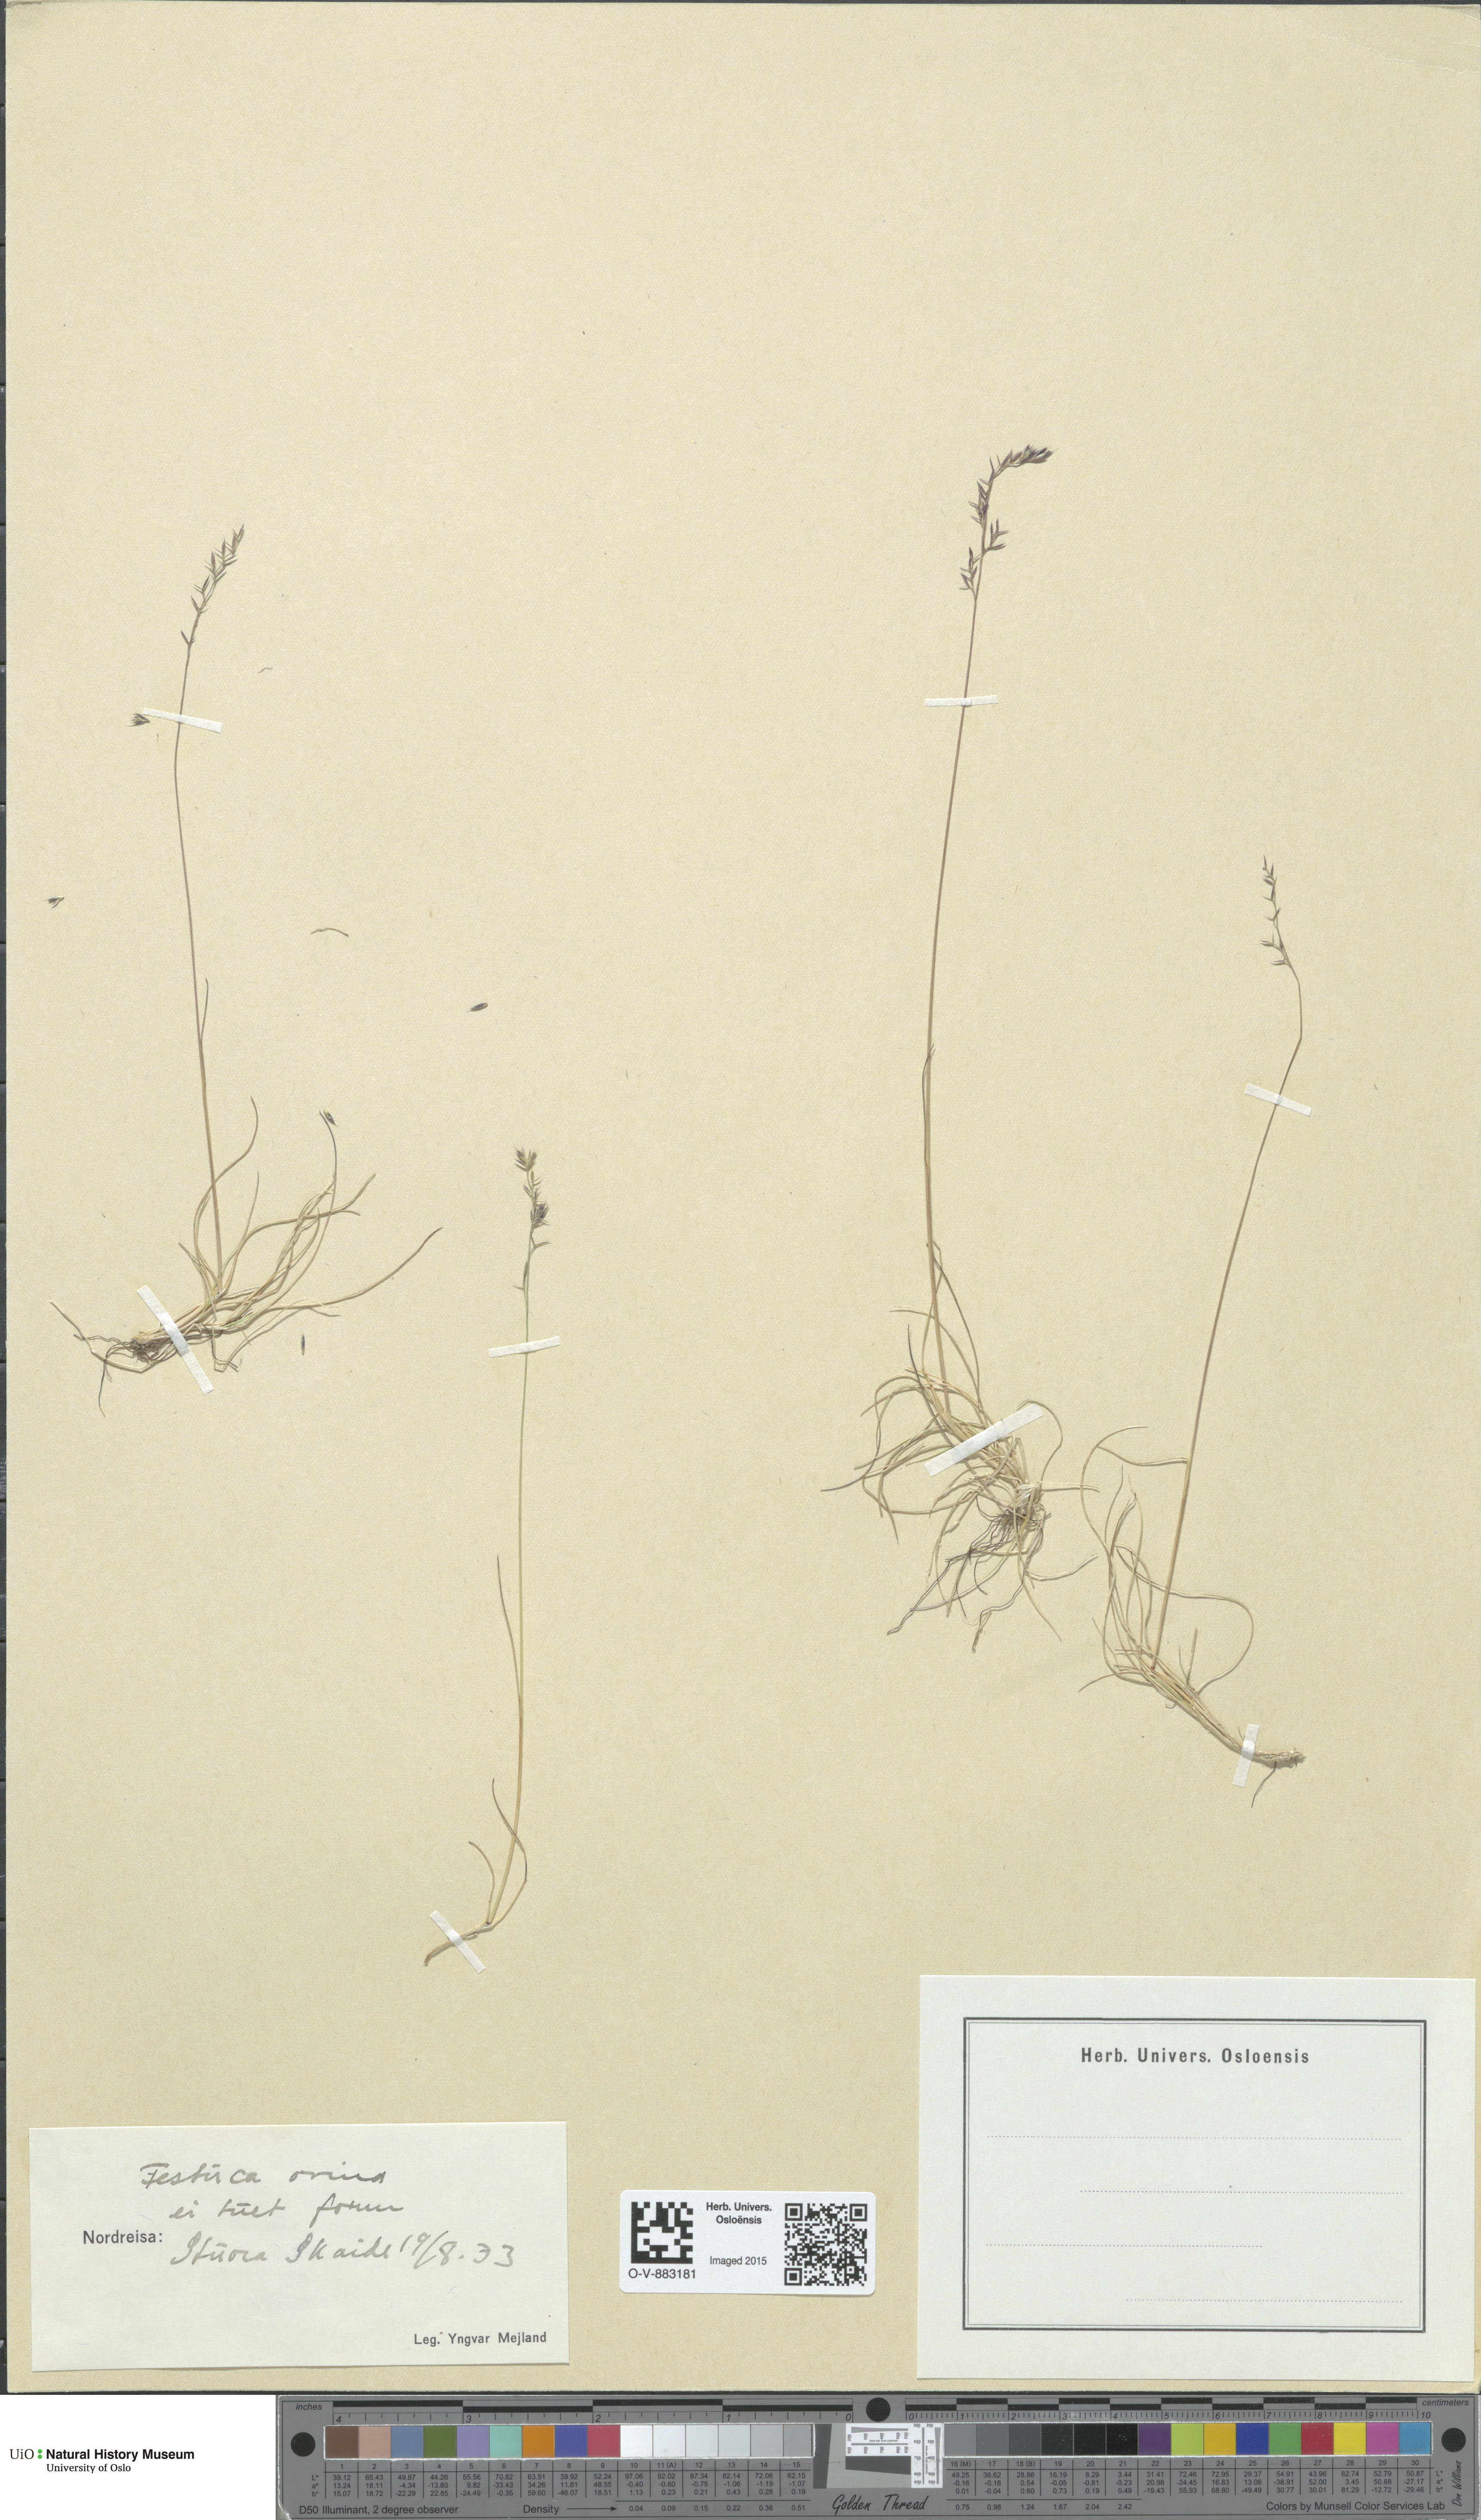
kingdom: Plantae
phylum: Tracheophyta
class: Liliopsida
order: Poales
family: Poaceae
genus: Festuca
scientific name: Festuca ovina
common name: Sheep fescue
